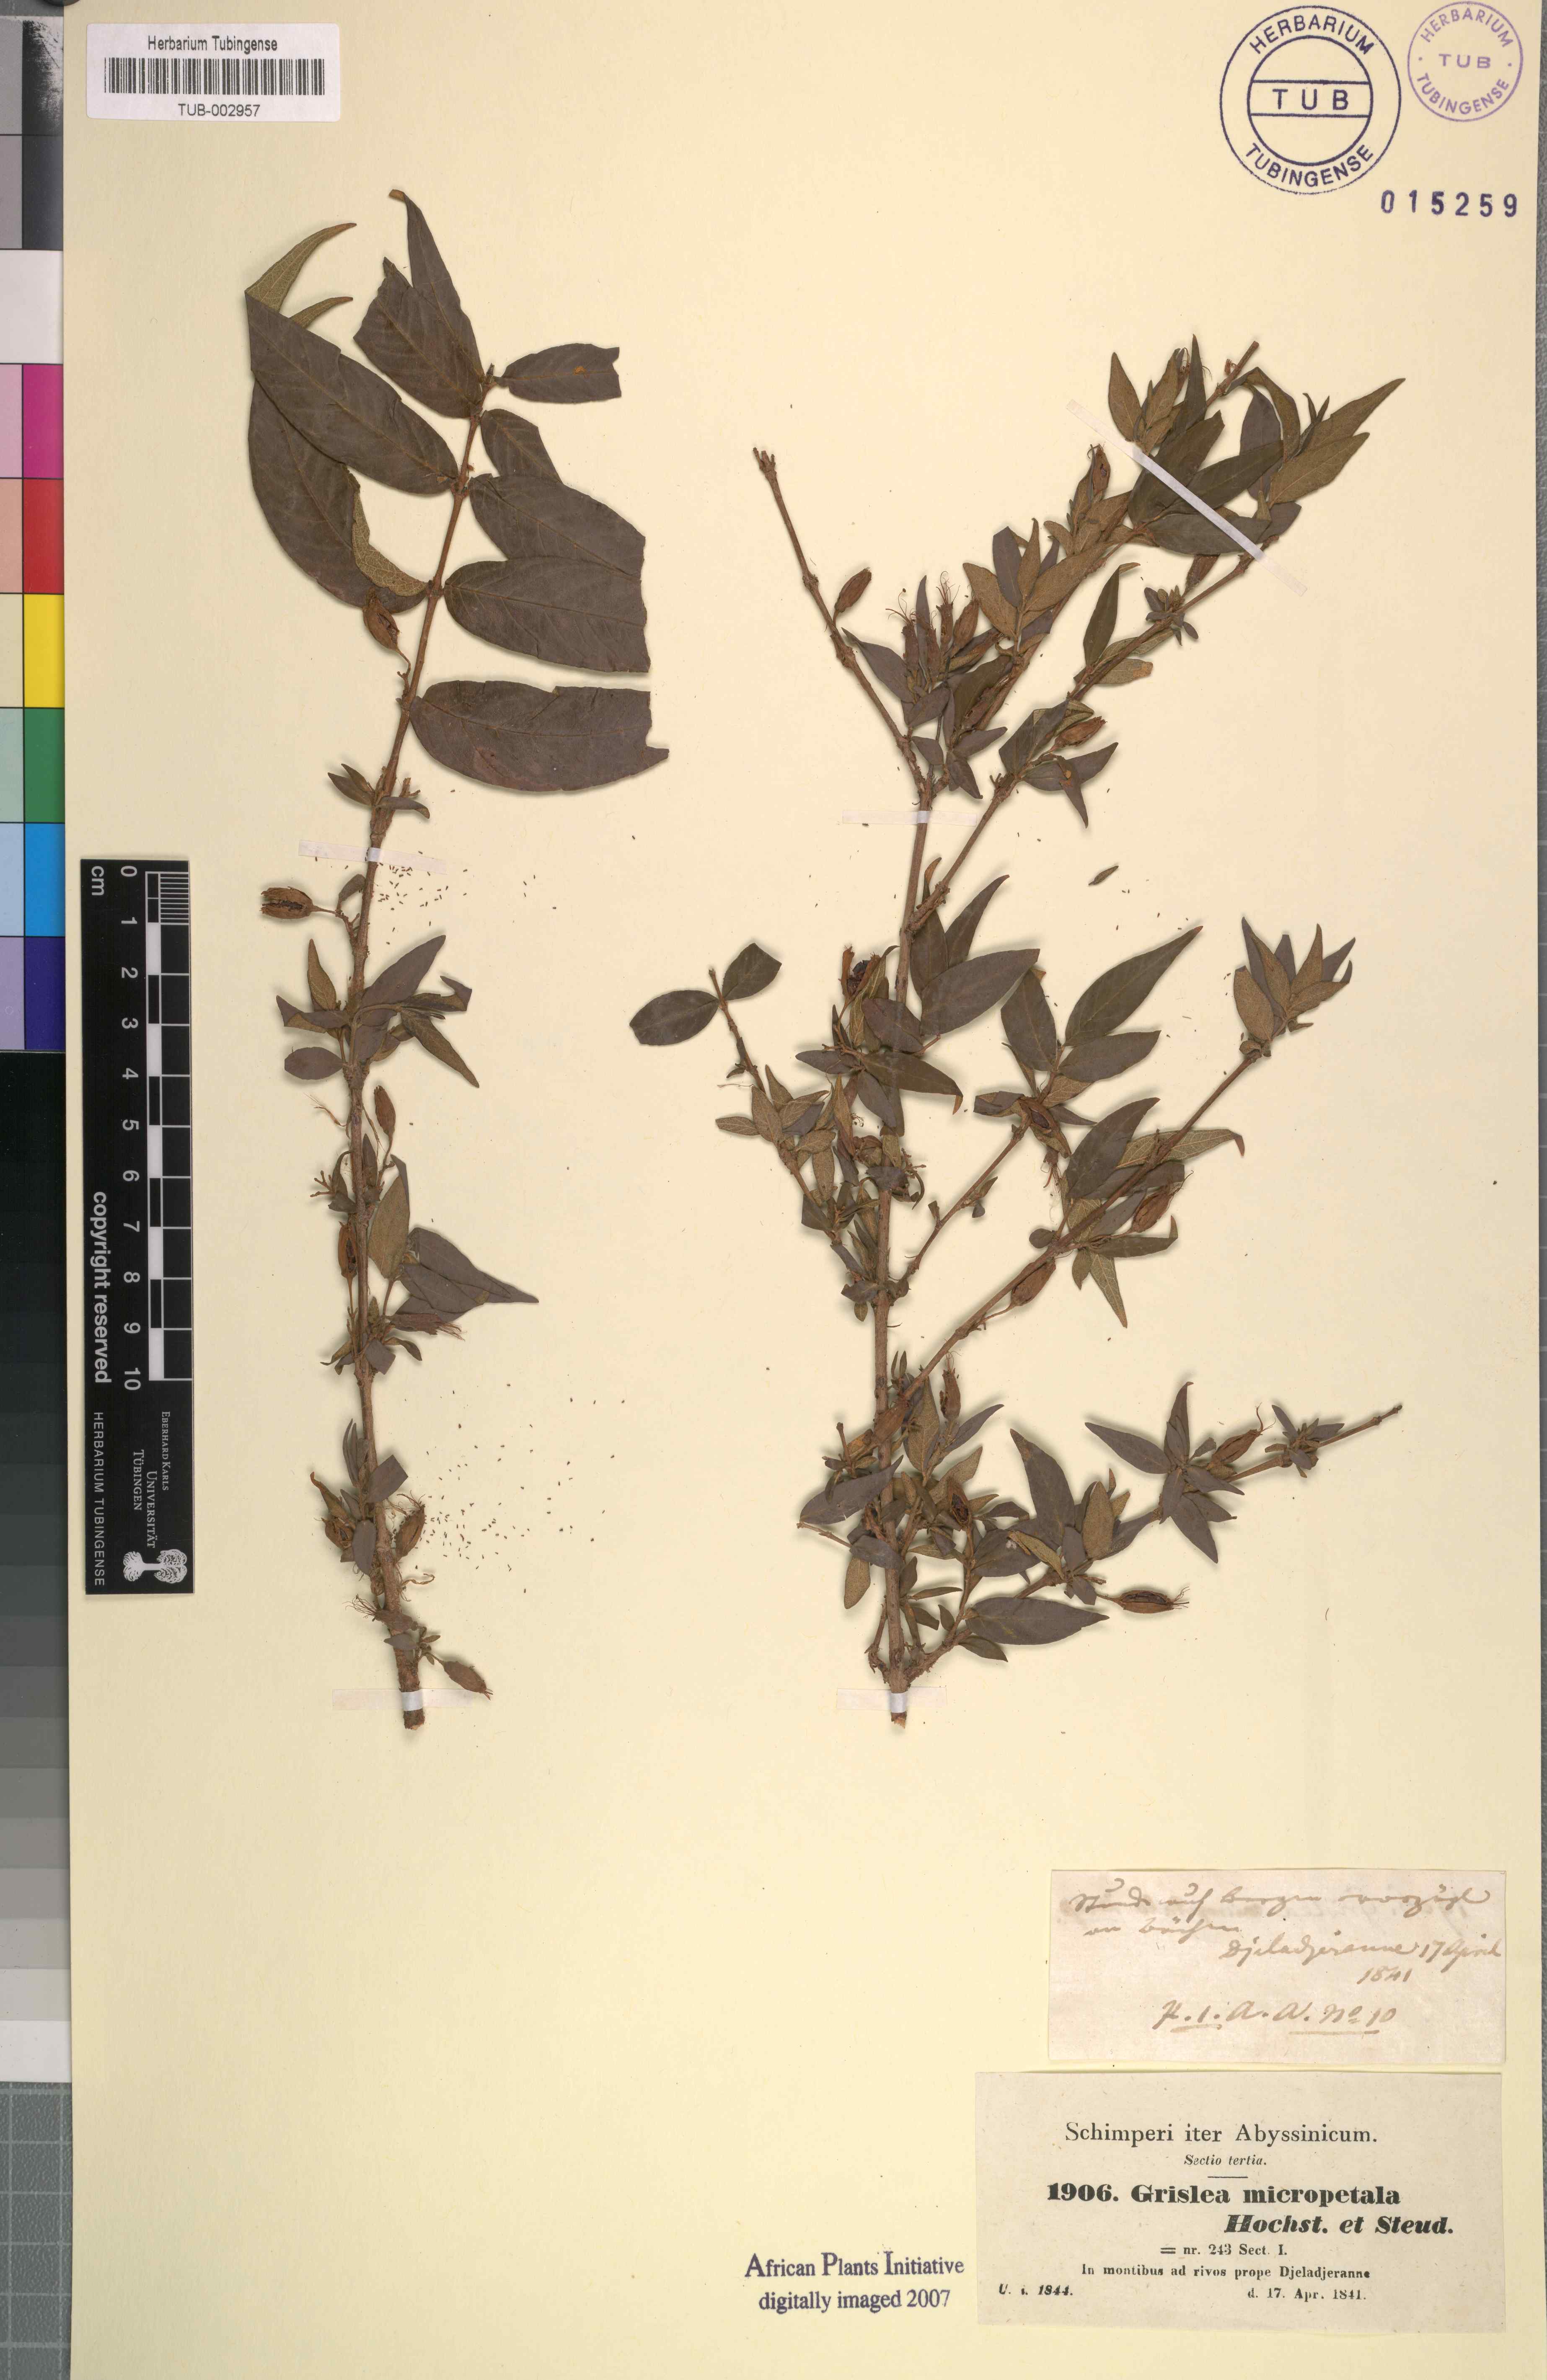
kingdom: Plantae
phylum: Tracheophyta
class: Magnoliopsida
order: Myrtales
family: Lythraceae
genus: Woodfordia
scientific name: Woodfordia uniflora
